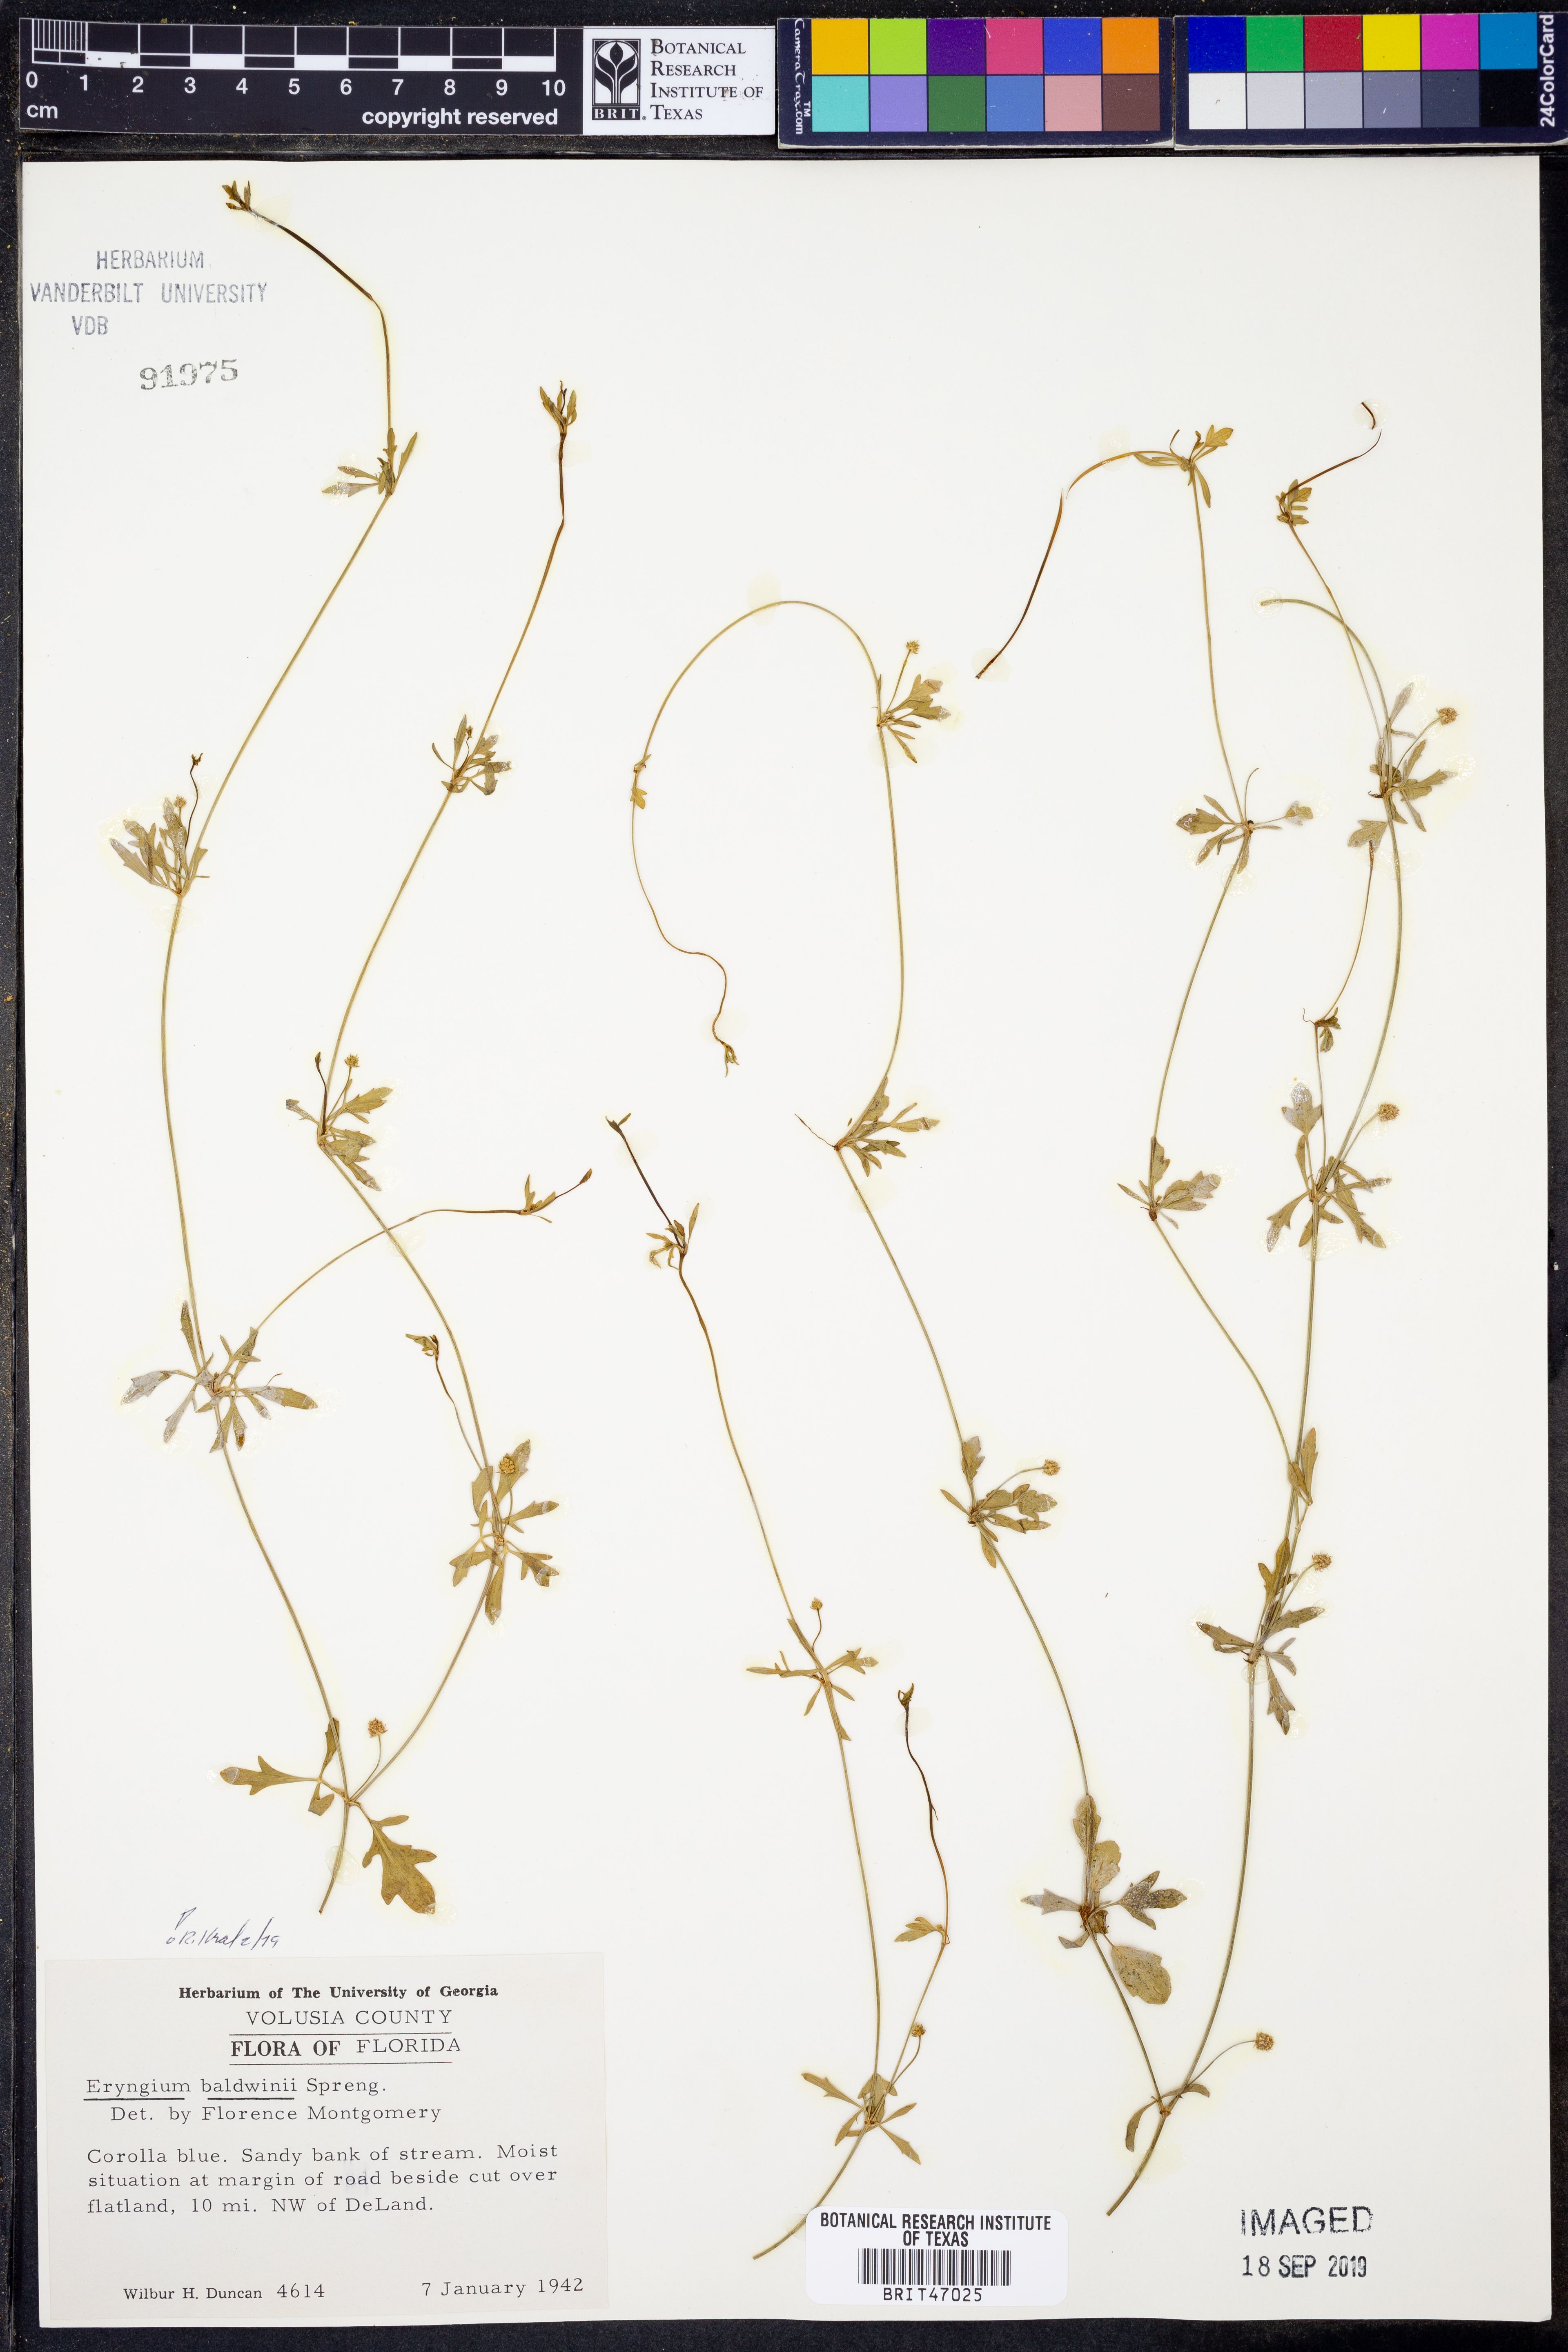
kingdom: Plantae
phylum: Tracheophyta
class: Magnoliopsida
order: Apiales
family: Apiaceae
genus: Eryngium
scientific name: Eryngium baldwinii
